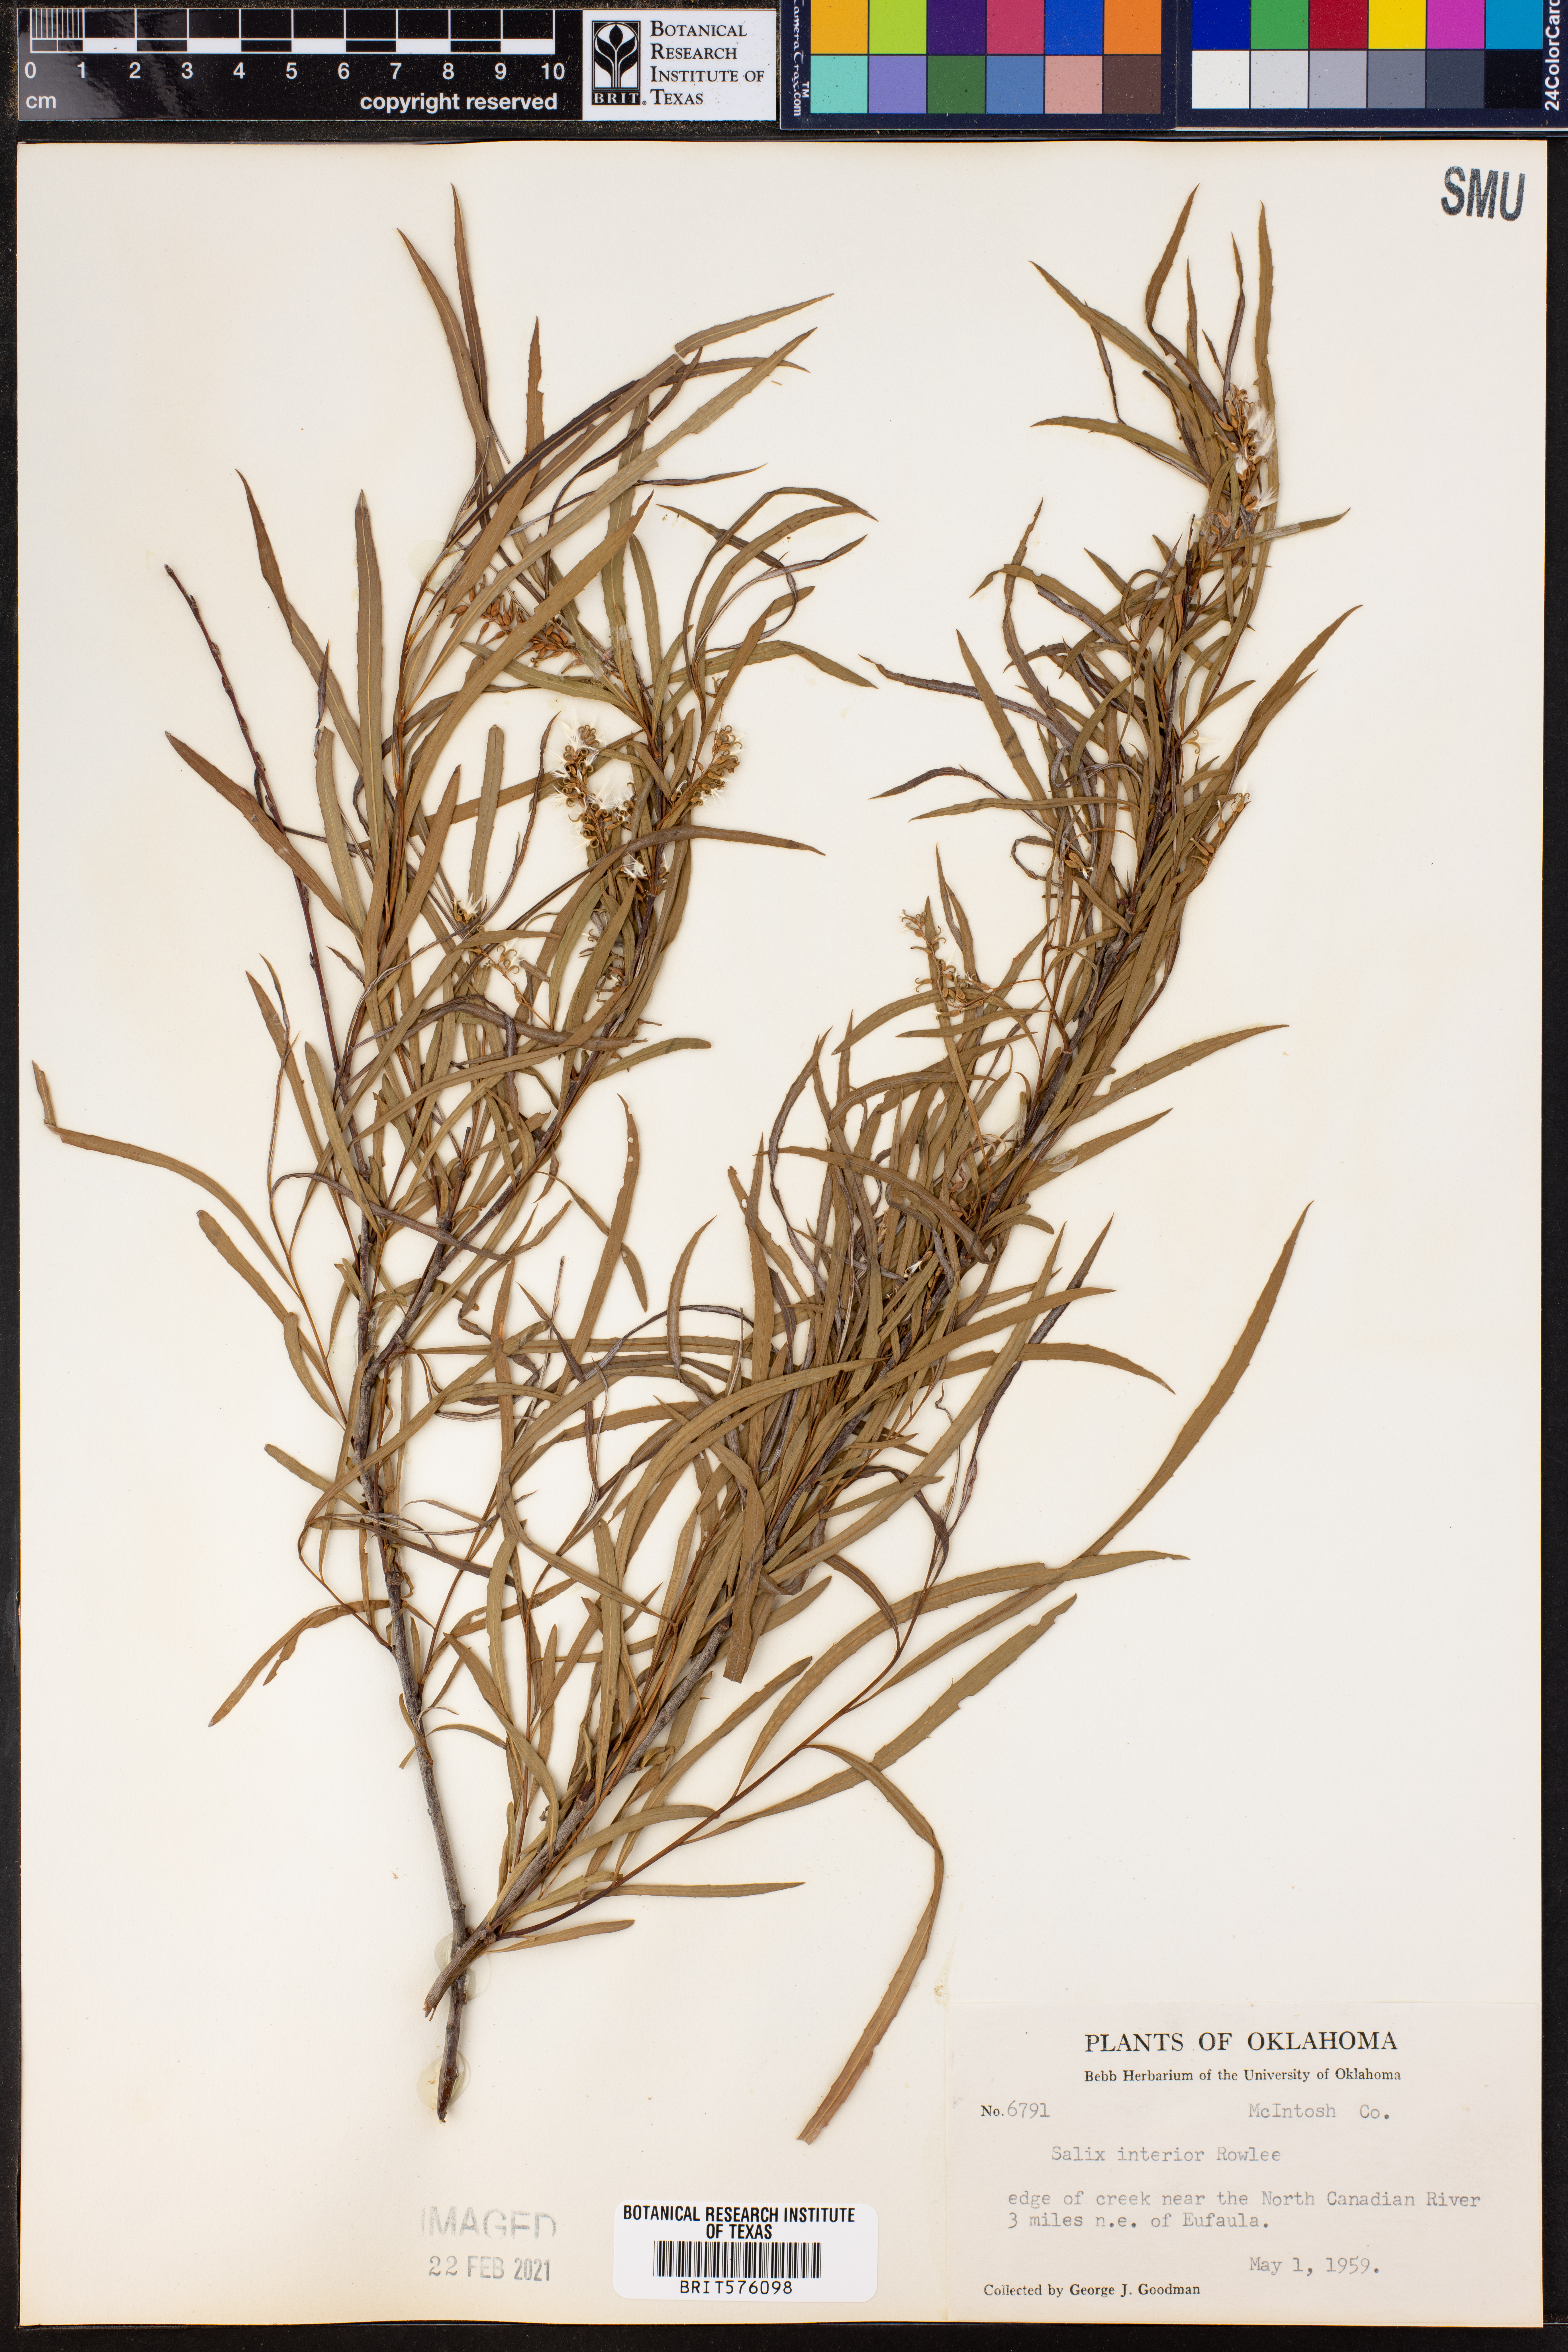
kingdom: Plantae
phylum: Tracheophyta
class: Magnoliopsida
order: Malpighiales
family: Salicaceae
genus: Salix
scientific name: Salix interior
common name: Sandbar willow
